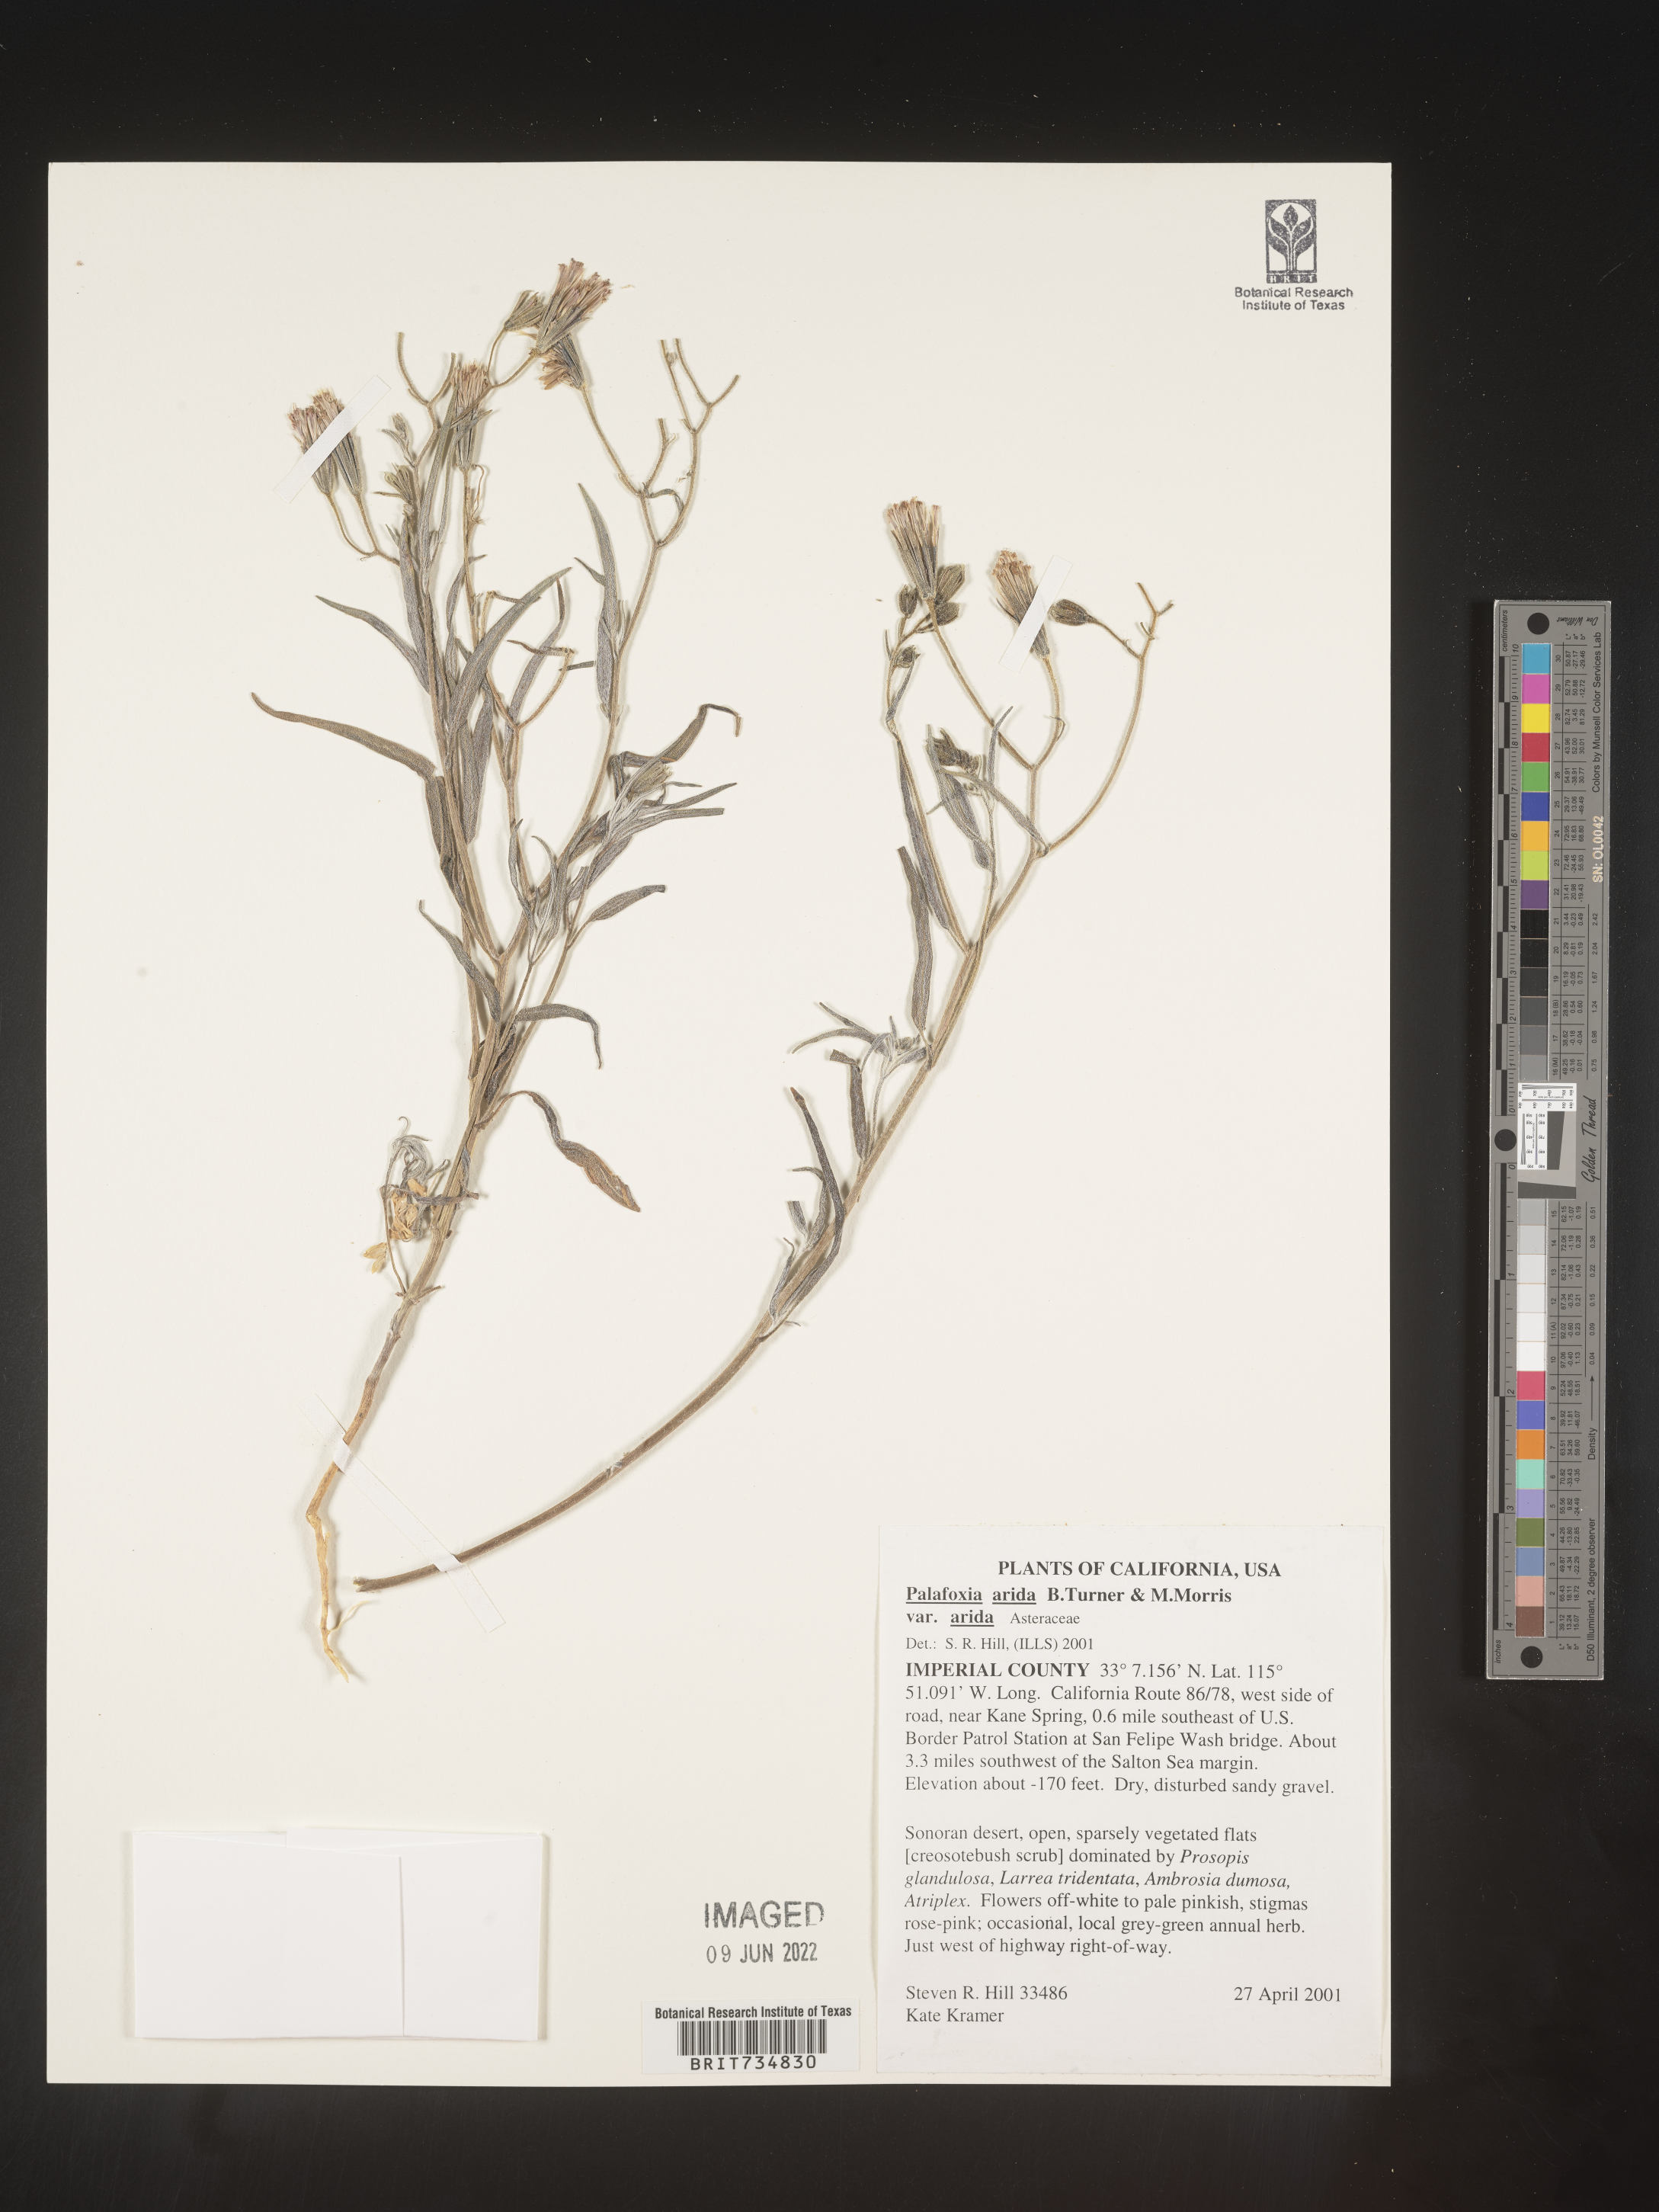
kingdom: Plantae
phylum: Tracheophyta
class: Magnoliopsida
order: Asterales
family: Asteraceae
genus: Palafoxia
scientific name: Palafoxia arida
